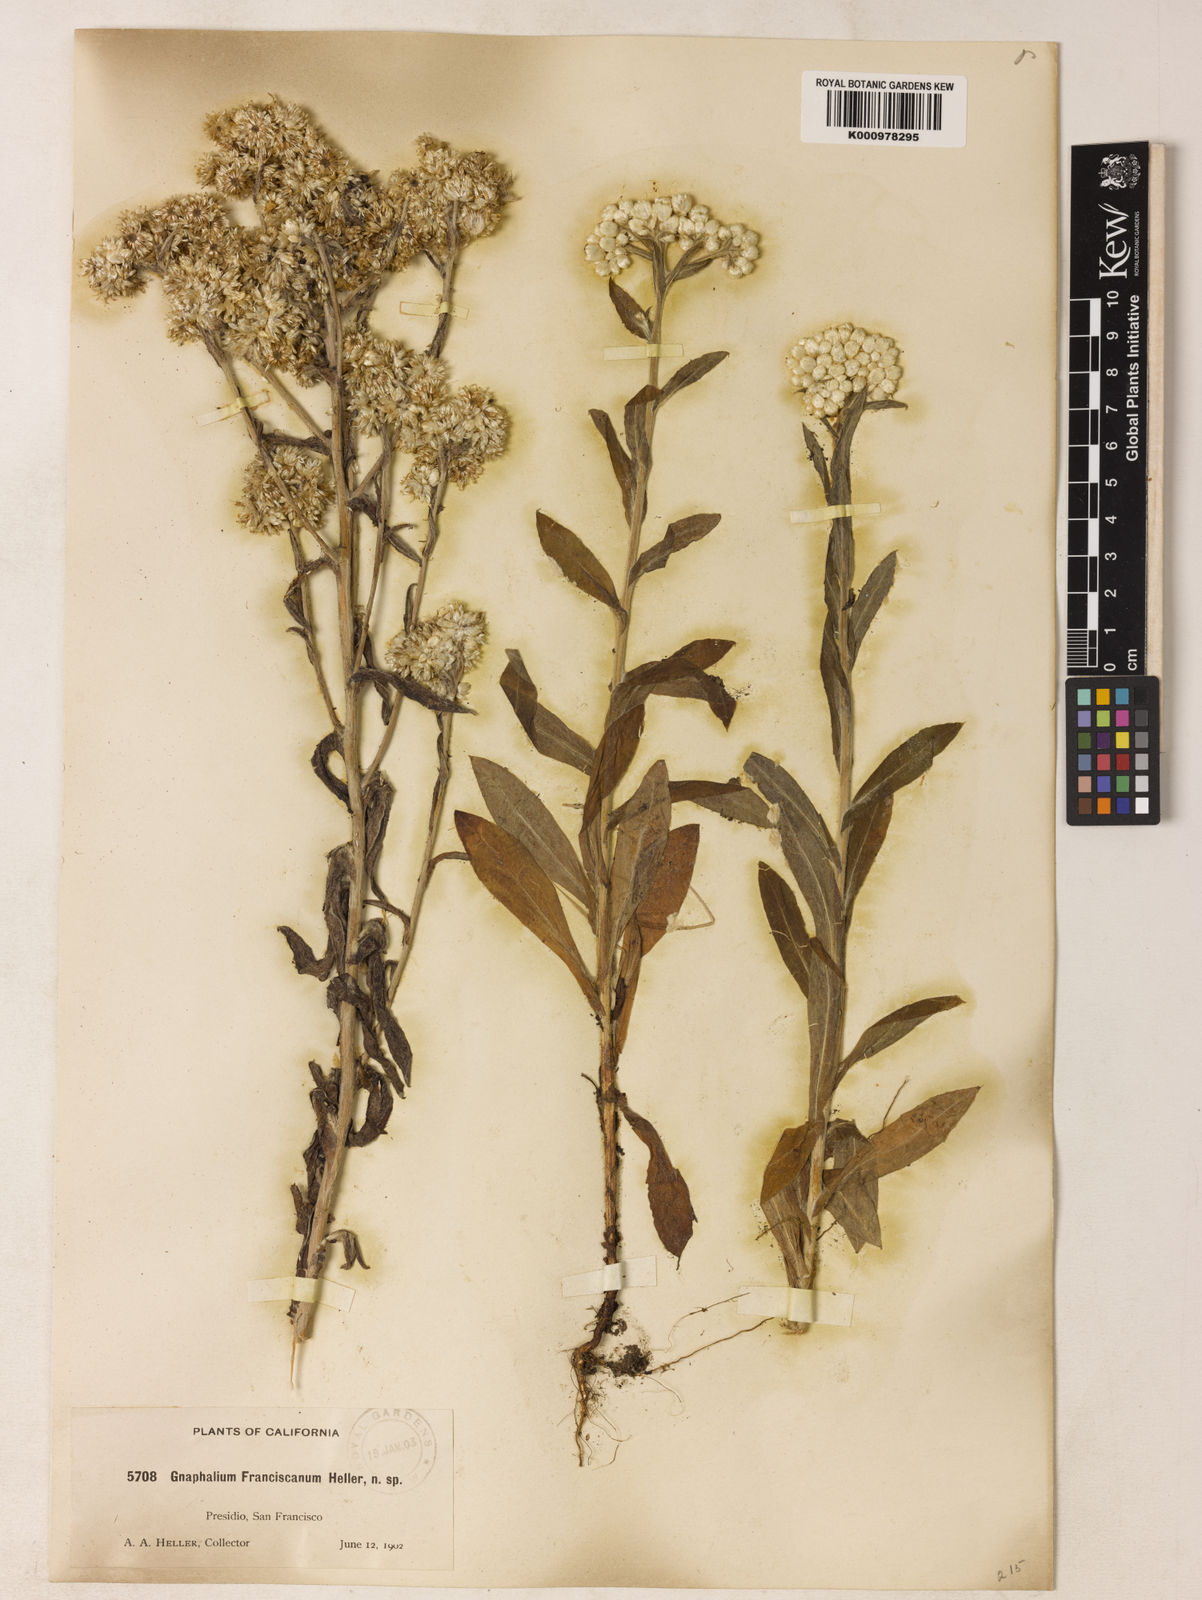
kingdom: Plantae
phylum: Tracheophyta
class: Magnoliopsida
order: Asterales
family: Asteraceae
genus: Gnaphalium
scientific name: Gnaphalium
